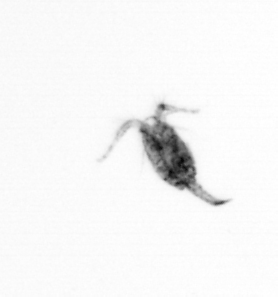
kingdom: Animalia
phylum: Arthropoda
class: Copepoda
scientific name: Copepoda
